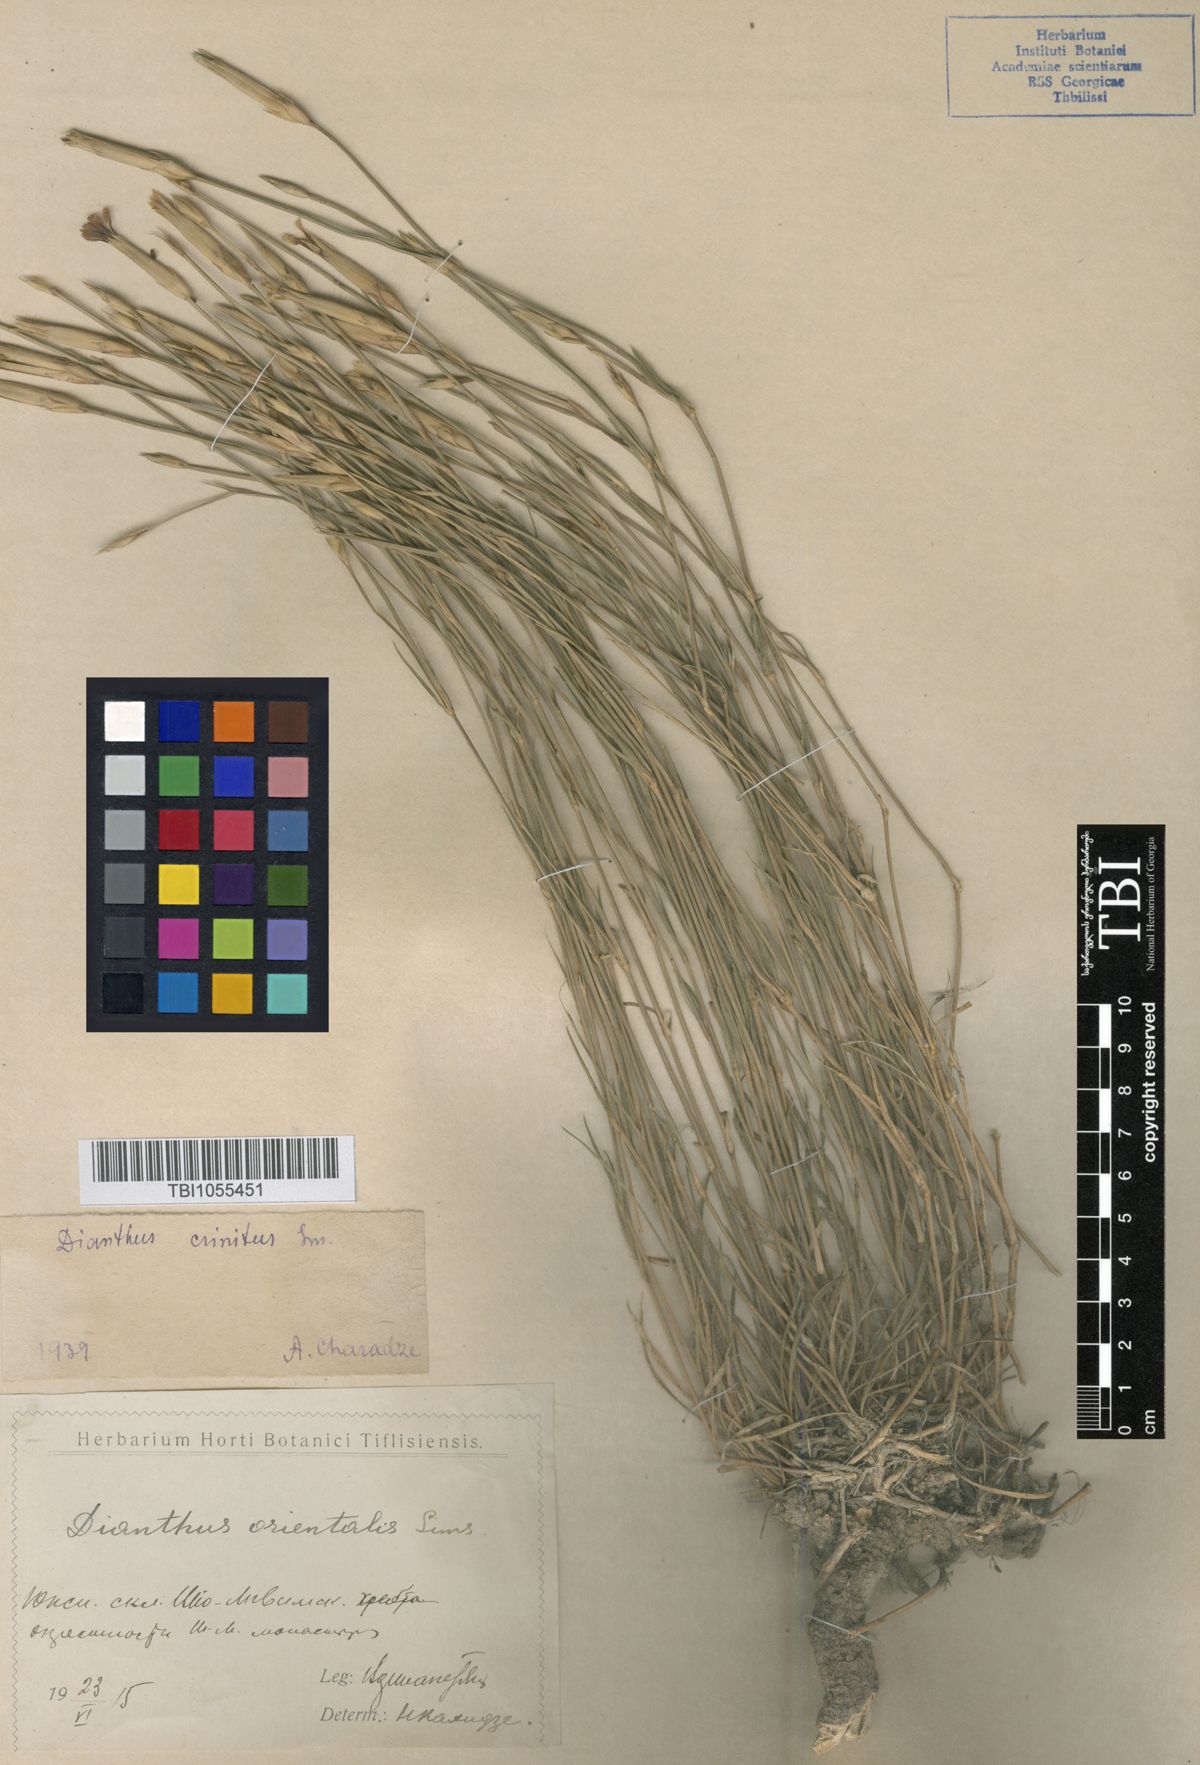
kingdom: Plantae
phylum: Tracheophyta
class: Magnoliopsida
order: Caryophyllales
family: Caryophyllaceae
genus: Dianthus
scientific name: Dianthus crinitus
